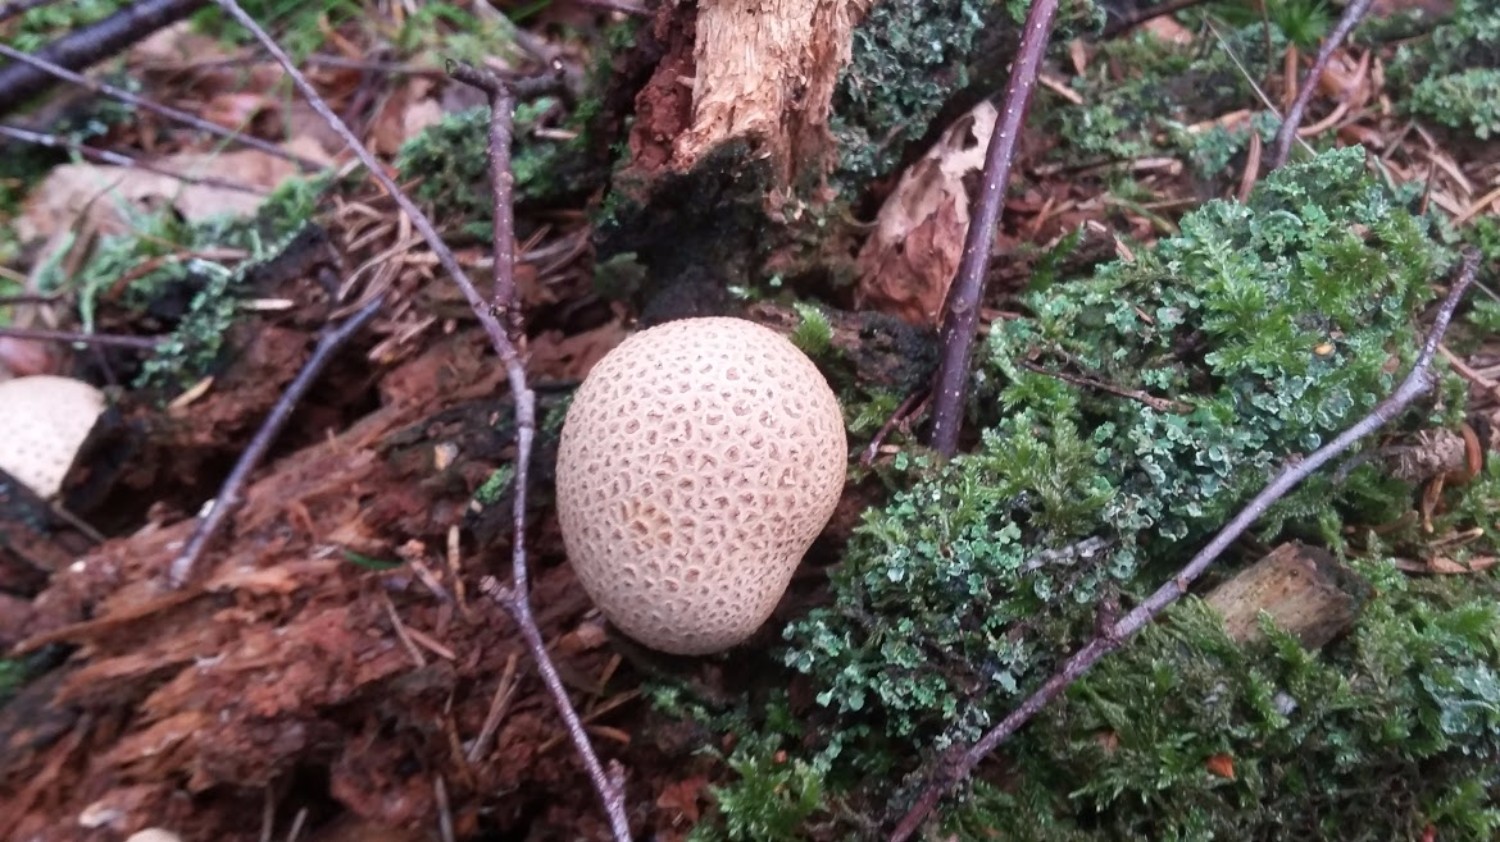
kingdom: Fungi
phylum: Basidiomycota
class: Agaricomycetes
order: Boletales
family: Sclerodermataceae
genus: Scleroderma
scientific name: Scleroderma citrinum
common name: almindelig bruskbold
